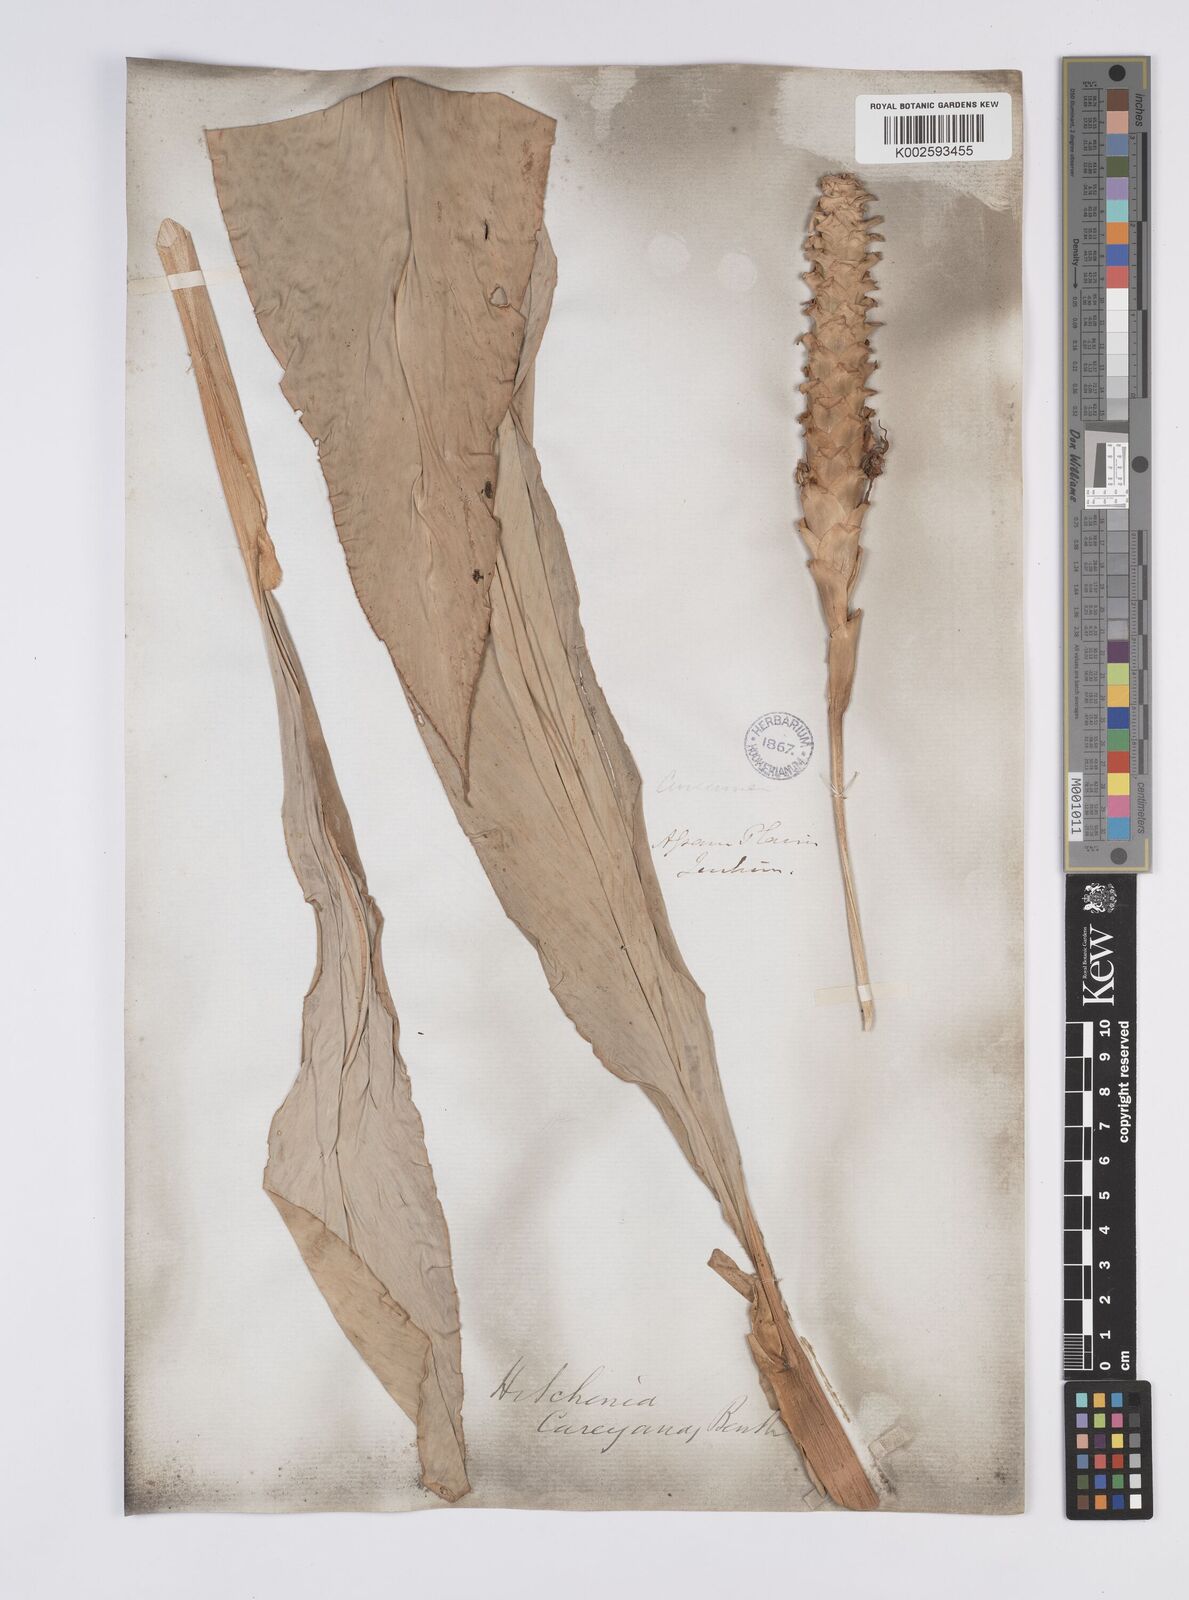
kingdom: Plantae
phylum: Tracheophyta
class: Liliopsida
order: Zingiberales
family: Zingiberaceae
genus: Larsenianthus
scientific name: Larsenianthus careyanus
